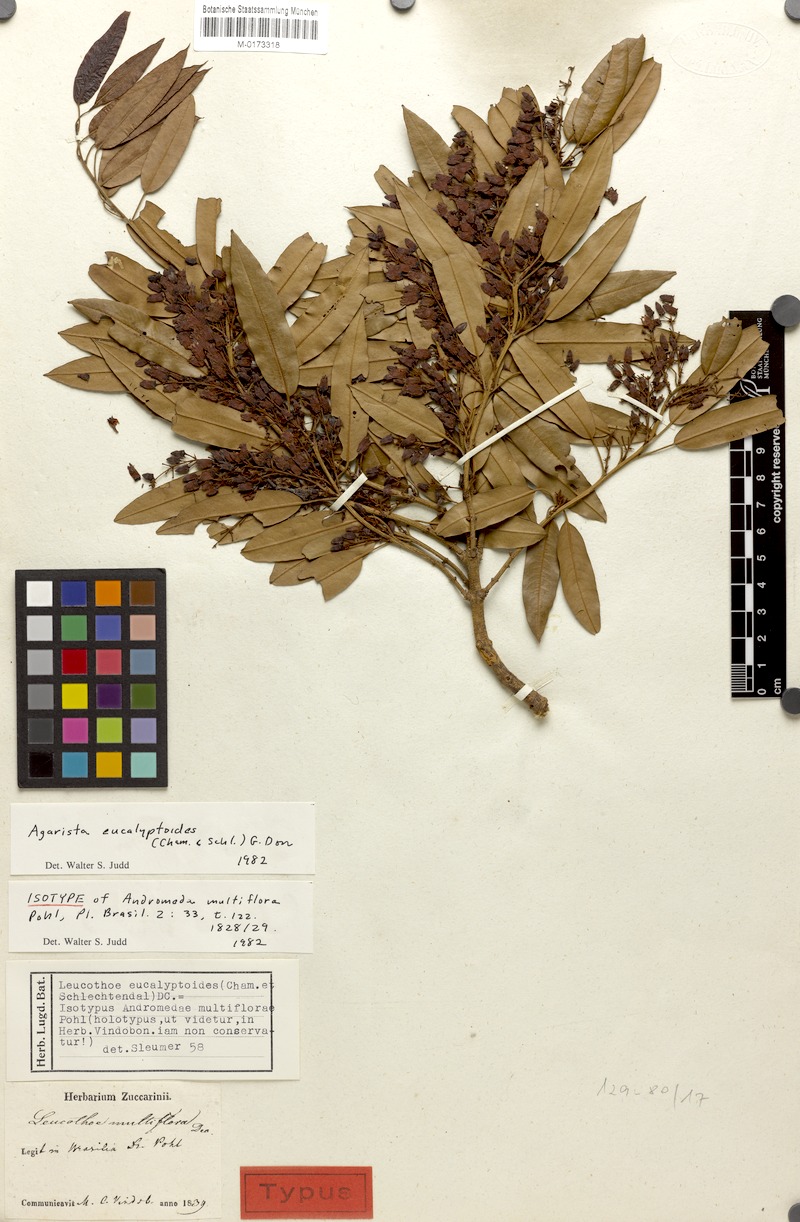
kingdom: Plantae
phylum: Tracheophyta
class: Magnoliopsida
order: Ericales
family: Ericaceae
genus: Agarista
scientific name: Agarista eucalyptoides
